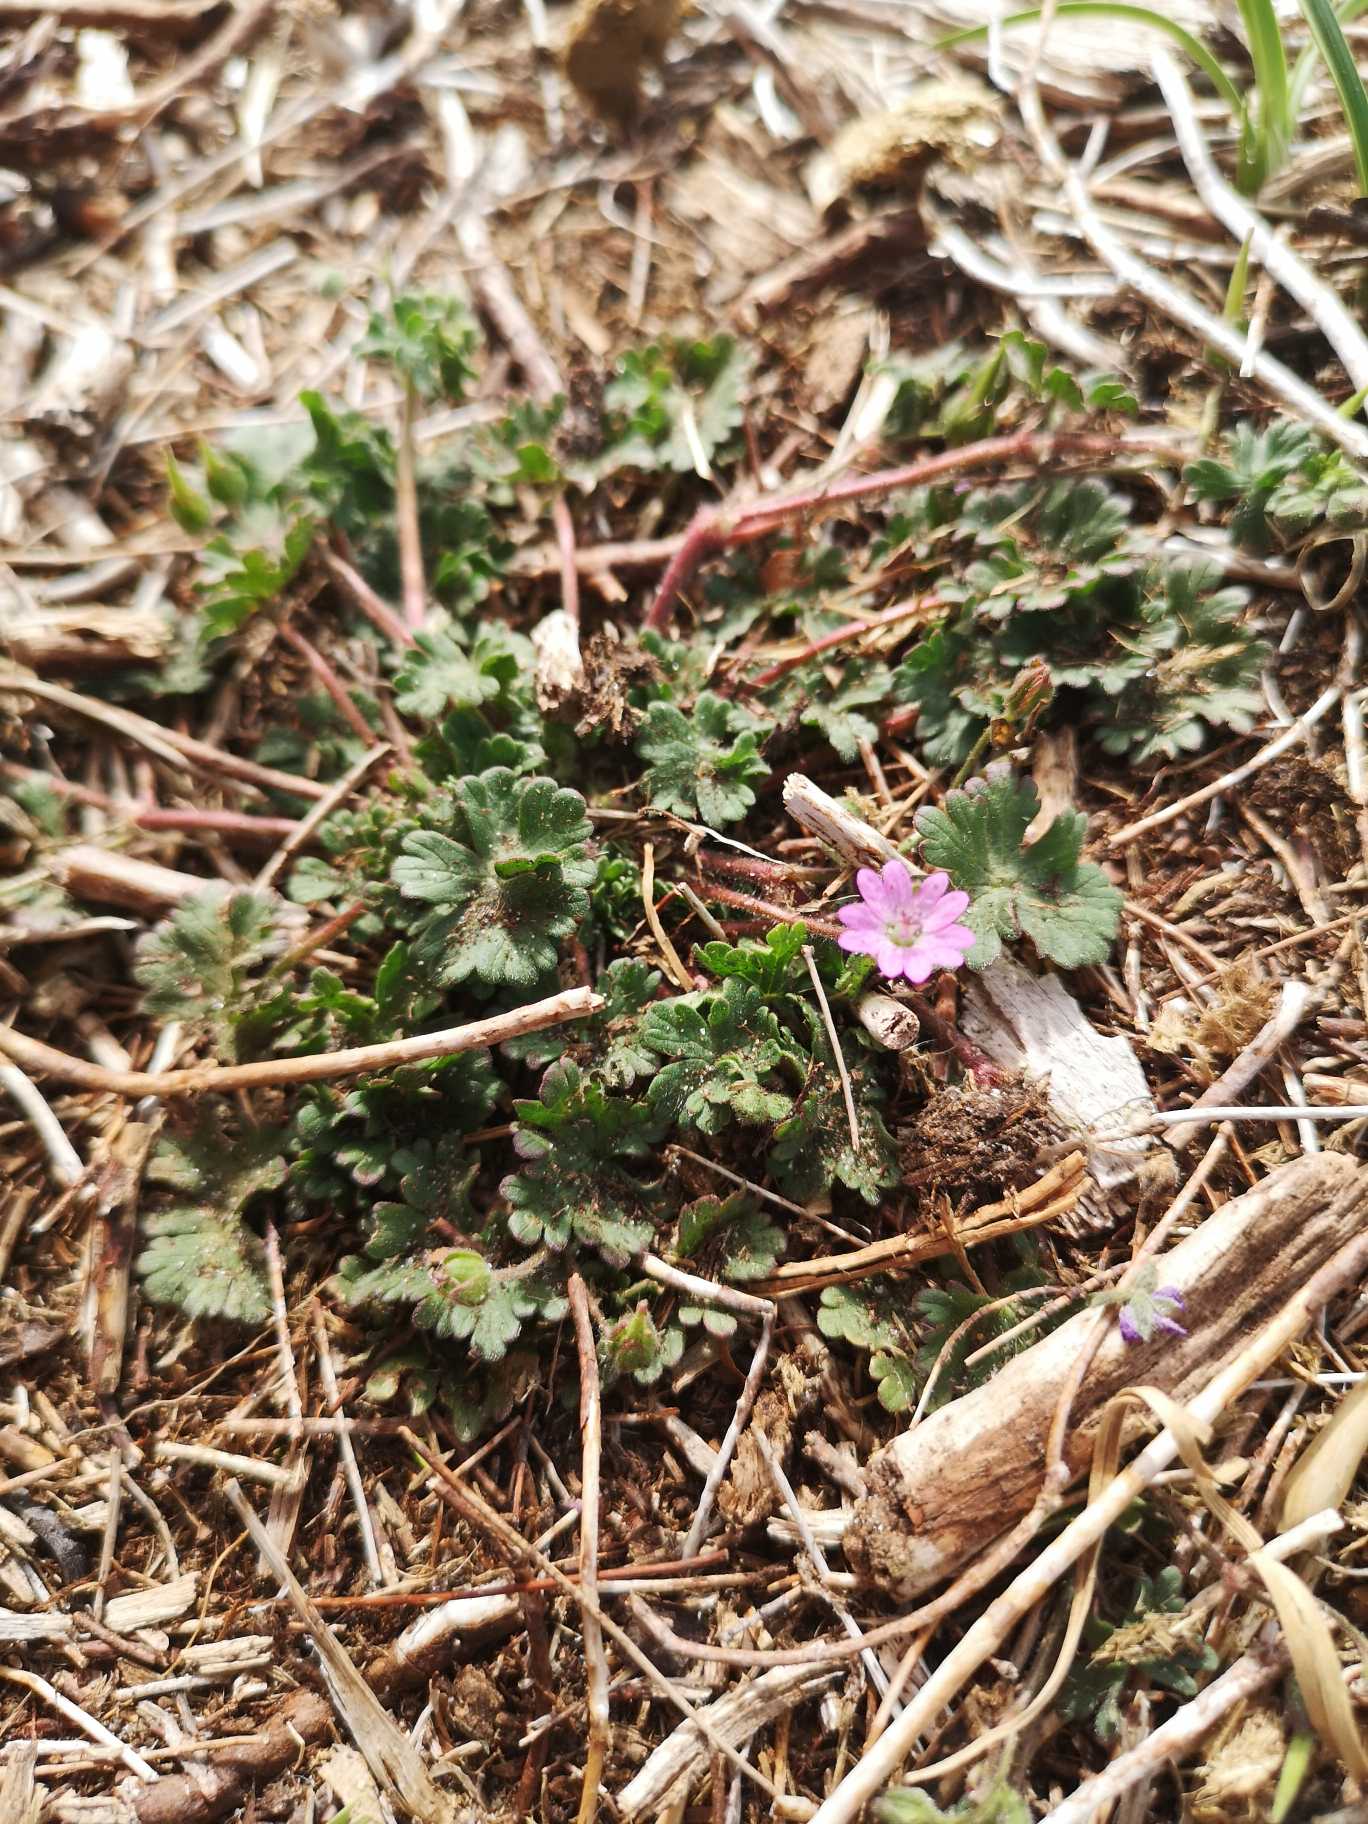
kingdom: Plantae
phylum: Tracheophyta
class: Magnoliopsida
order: Geraniales
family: Geraniaceae
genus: Geranium
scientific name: Geranium molle
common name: Blød storkenæb
